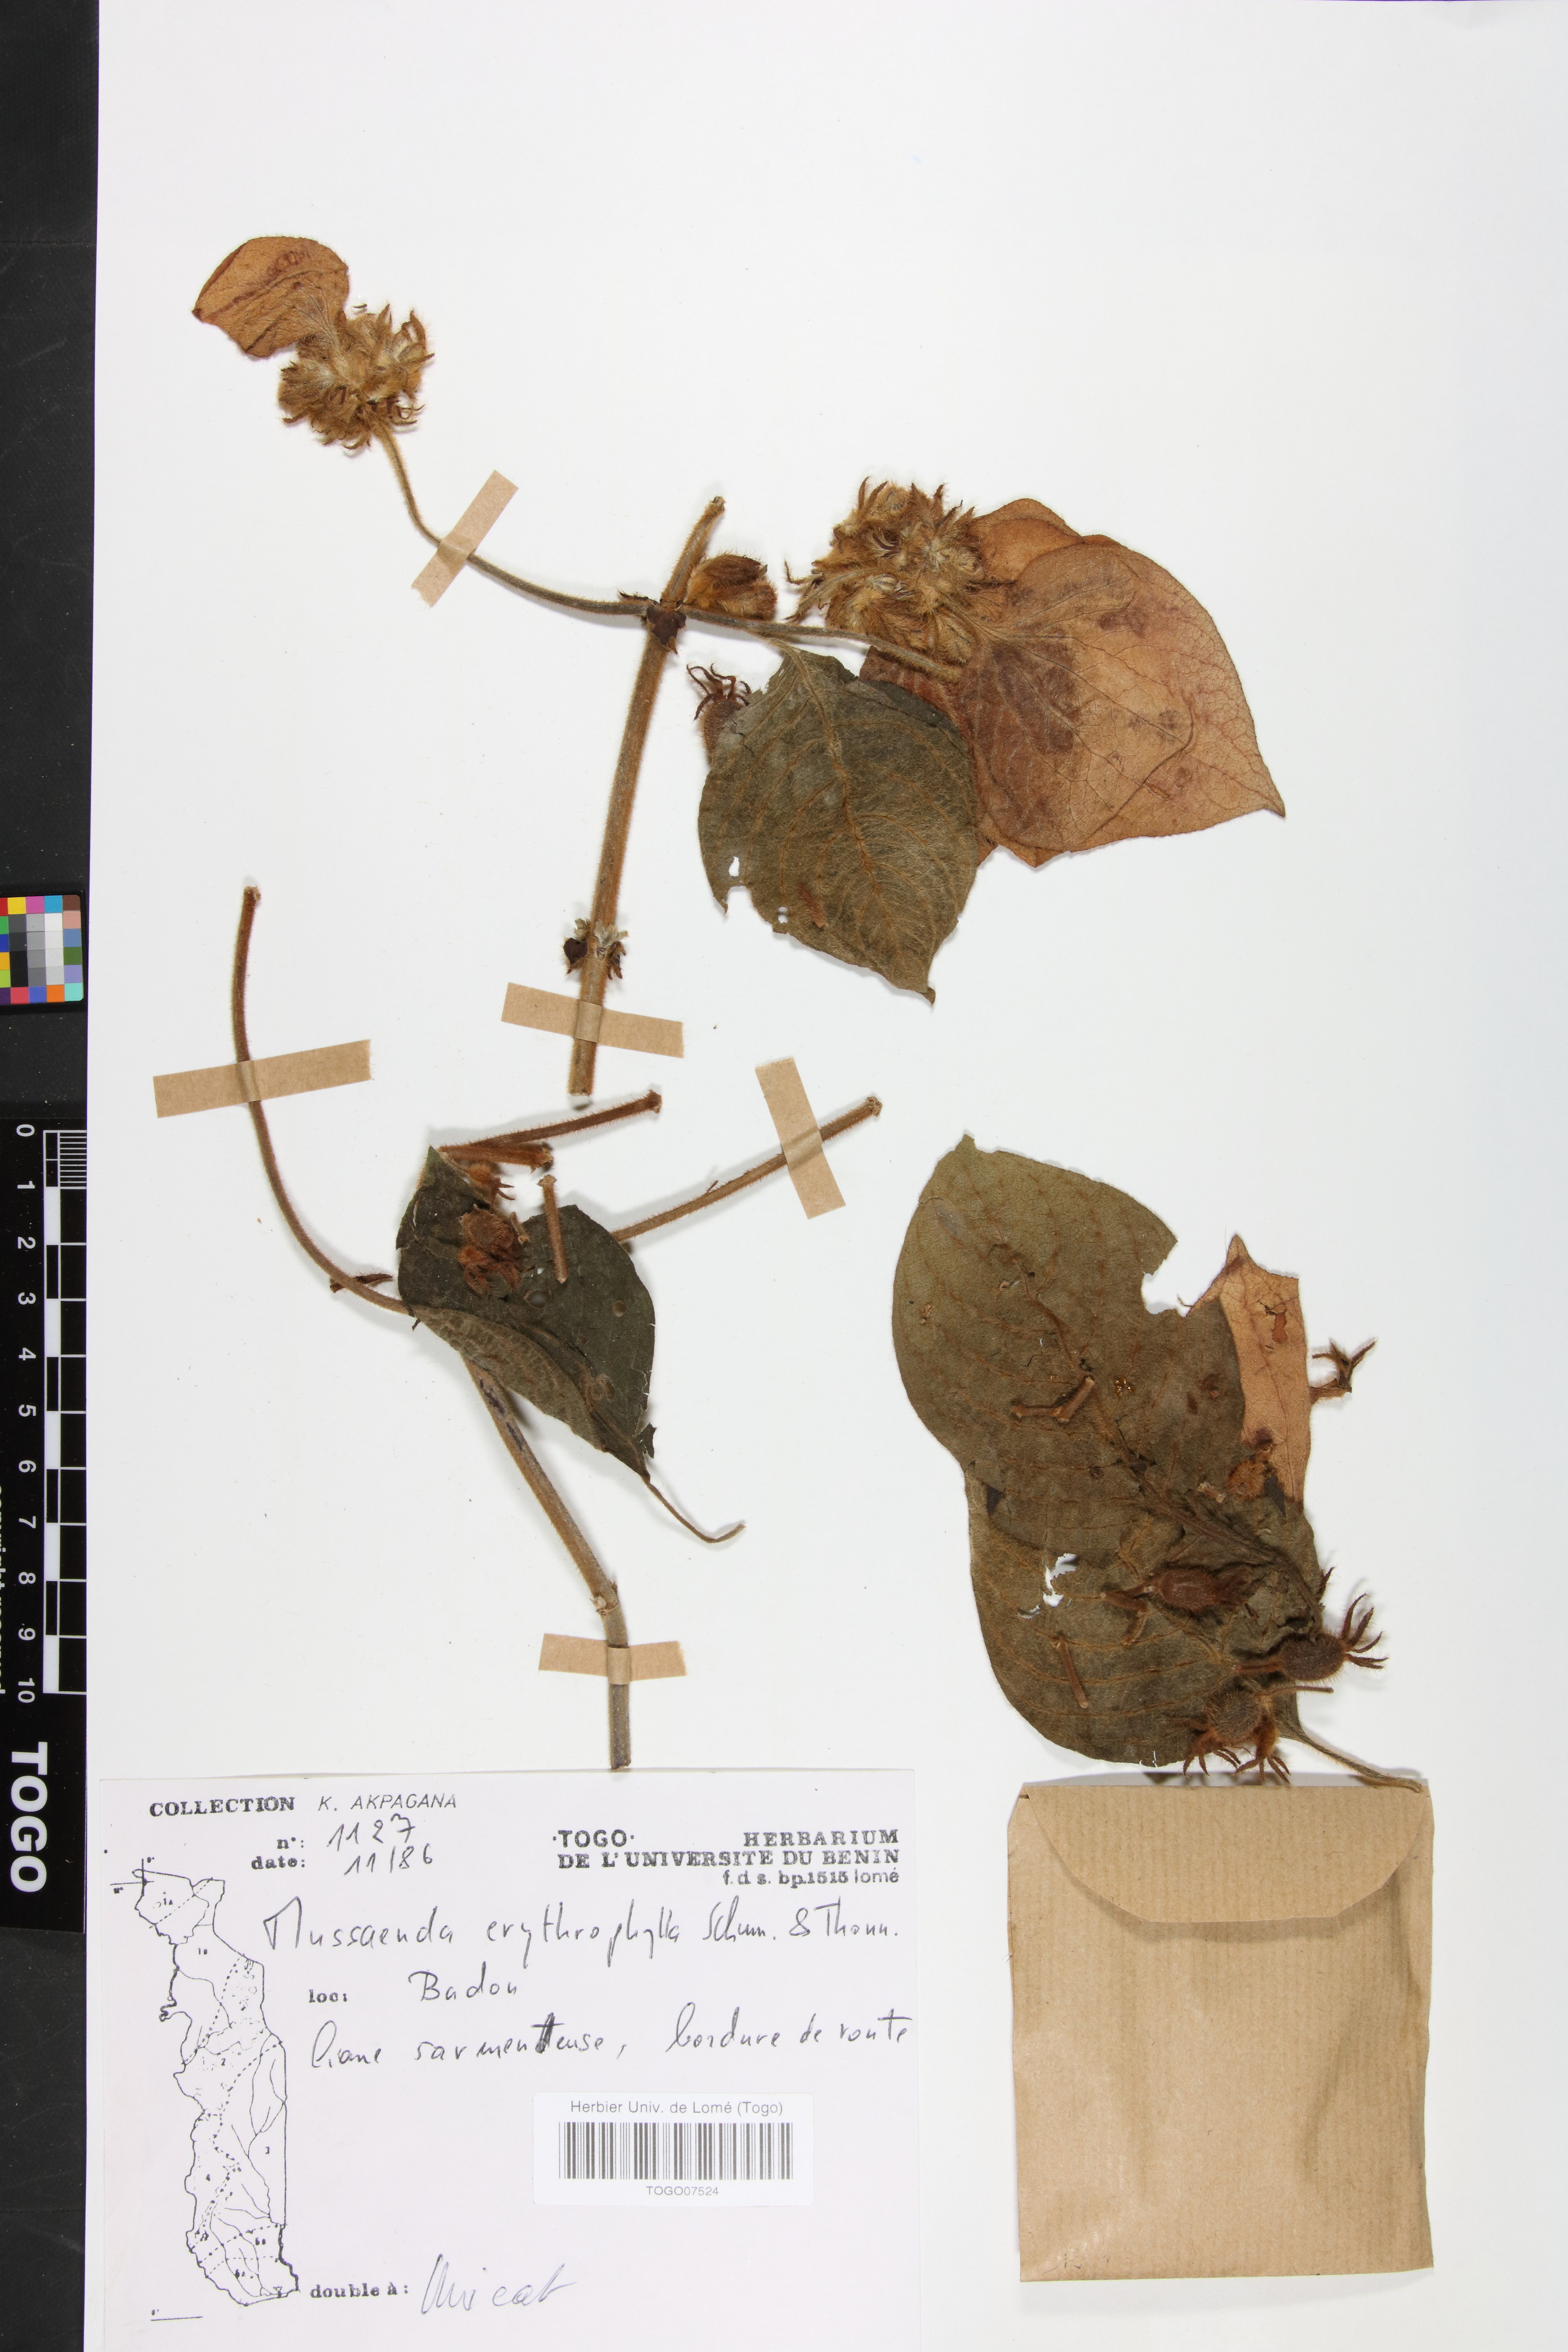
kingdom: Plantae
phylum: Tracheophyta
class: Magnoliopsida
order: Gentianales
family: Rubiaceae
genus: Mussaenda
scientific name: Mussaenda erythrophylla
